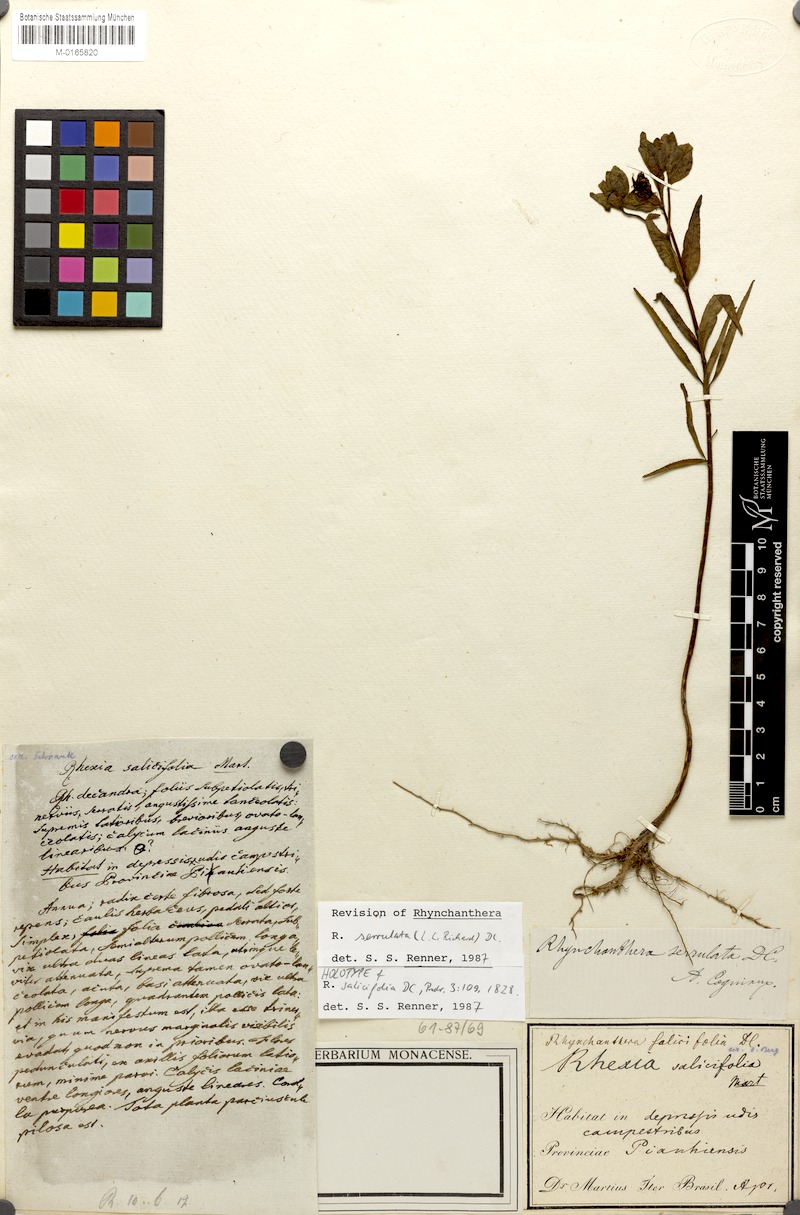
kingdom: Plantae
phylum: Tracheophyta
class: Magnoliopsida
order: Myrtales
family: Melastomataceae
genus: Rhynchanthera
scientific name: Rhynchanthera serrulata
